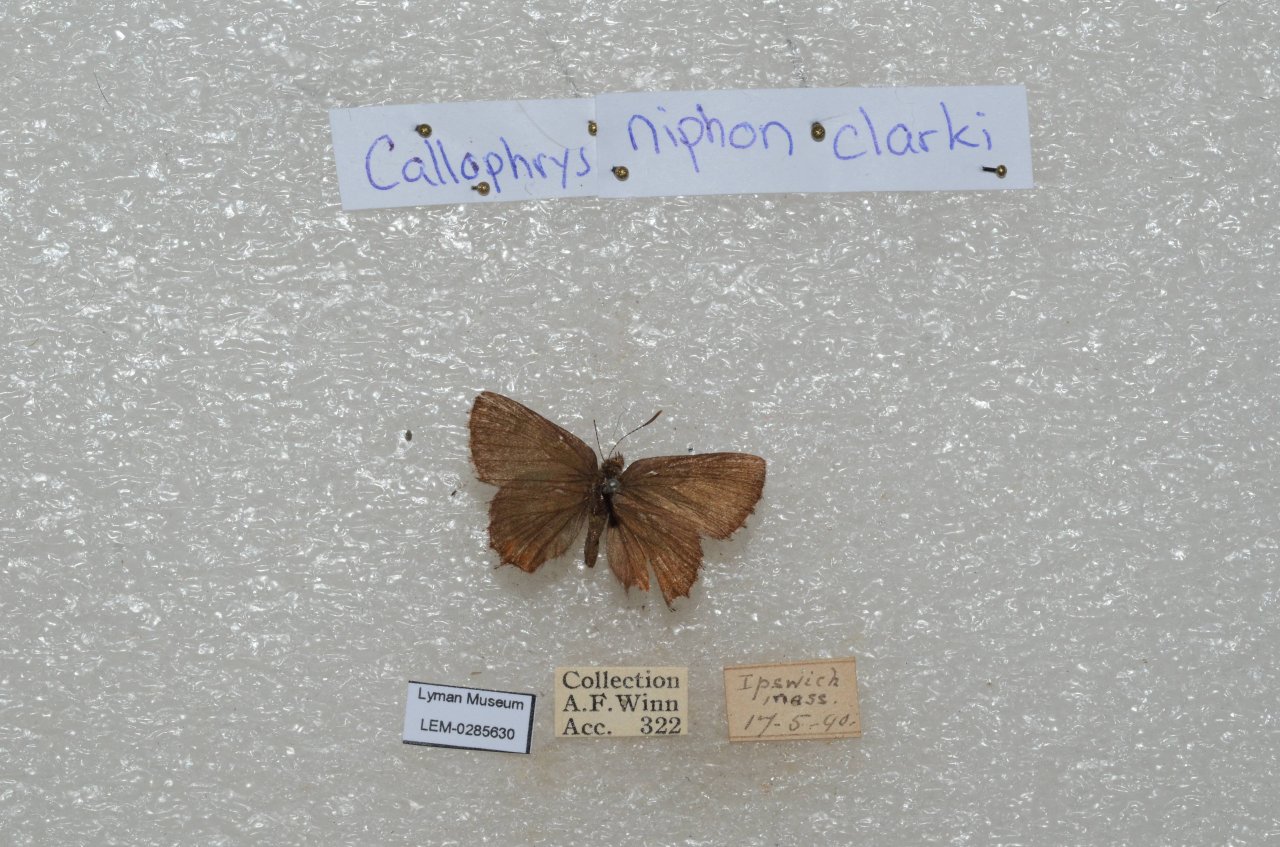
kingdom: Animalia
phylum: Arthropoda
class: Insecta
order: Lepidoptera
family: Lycaenidae
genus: Incisalia
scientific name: Incisalia niphon
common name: Eastern Pine Elfin
